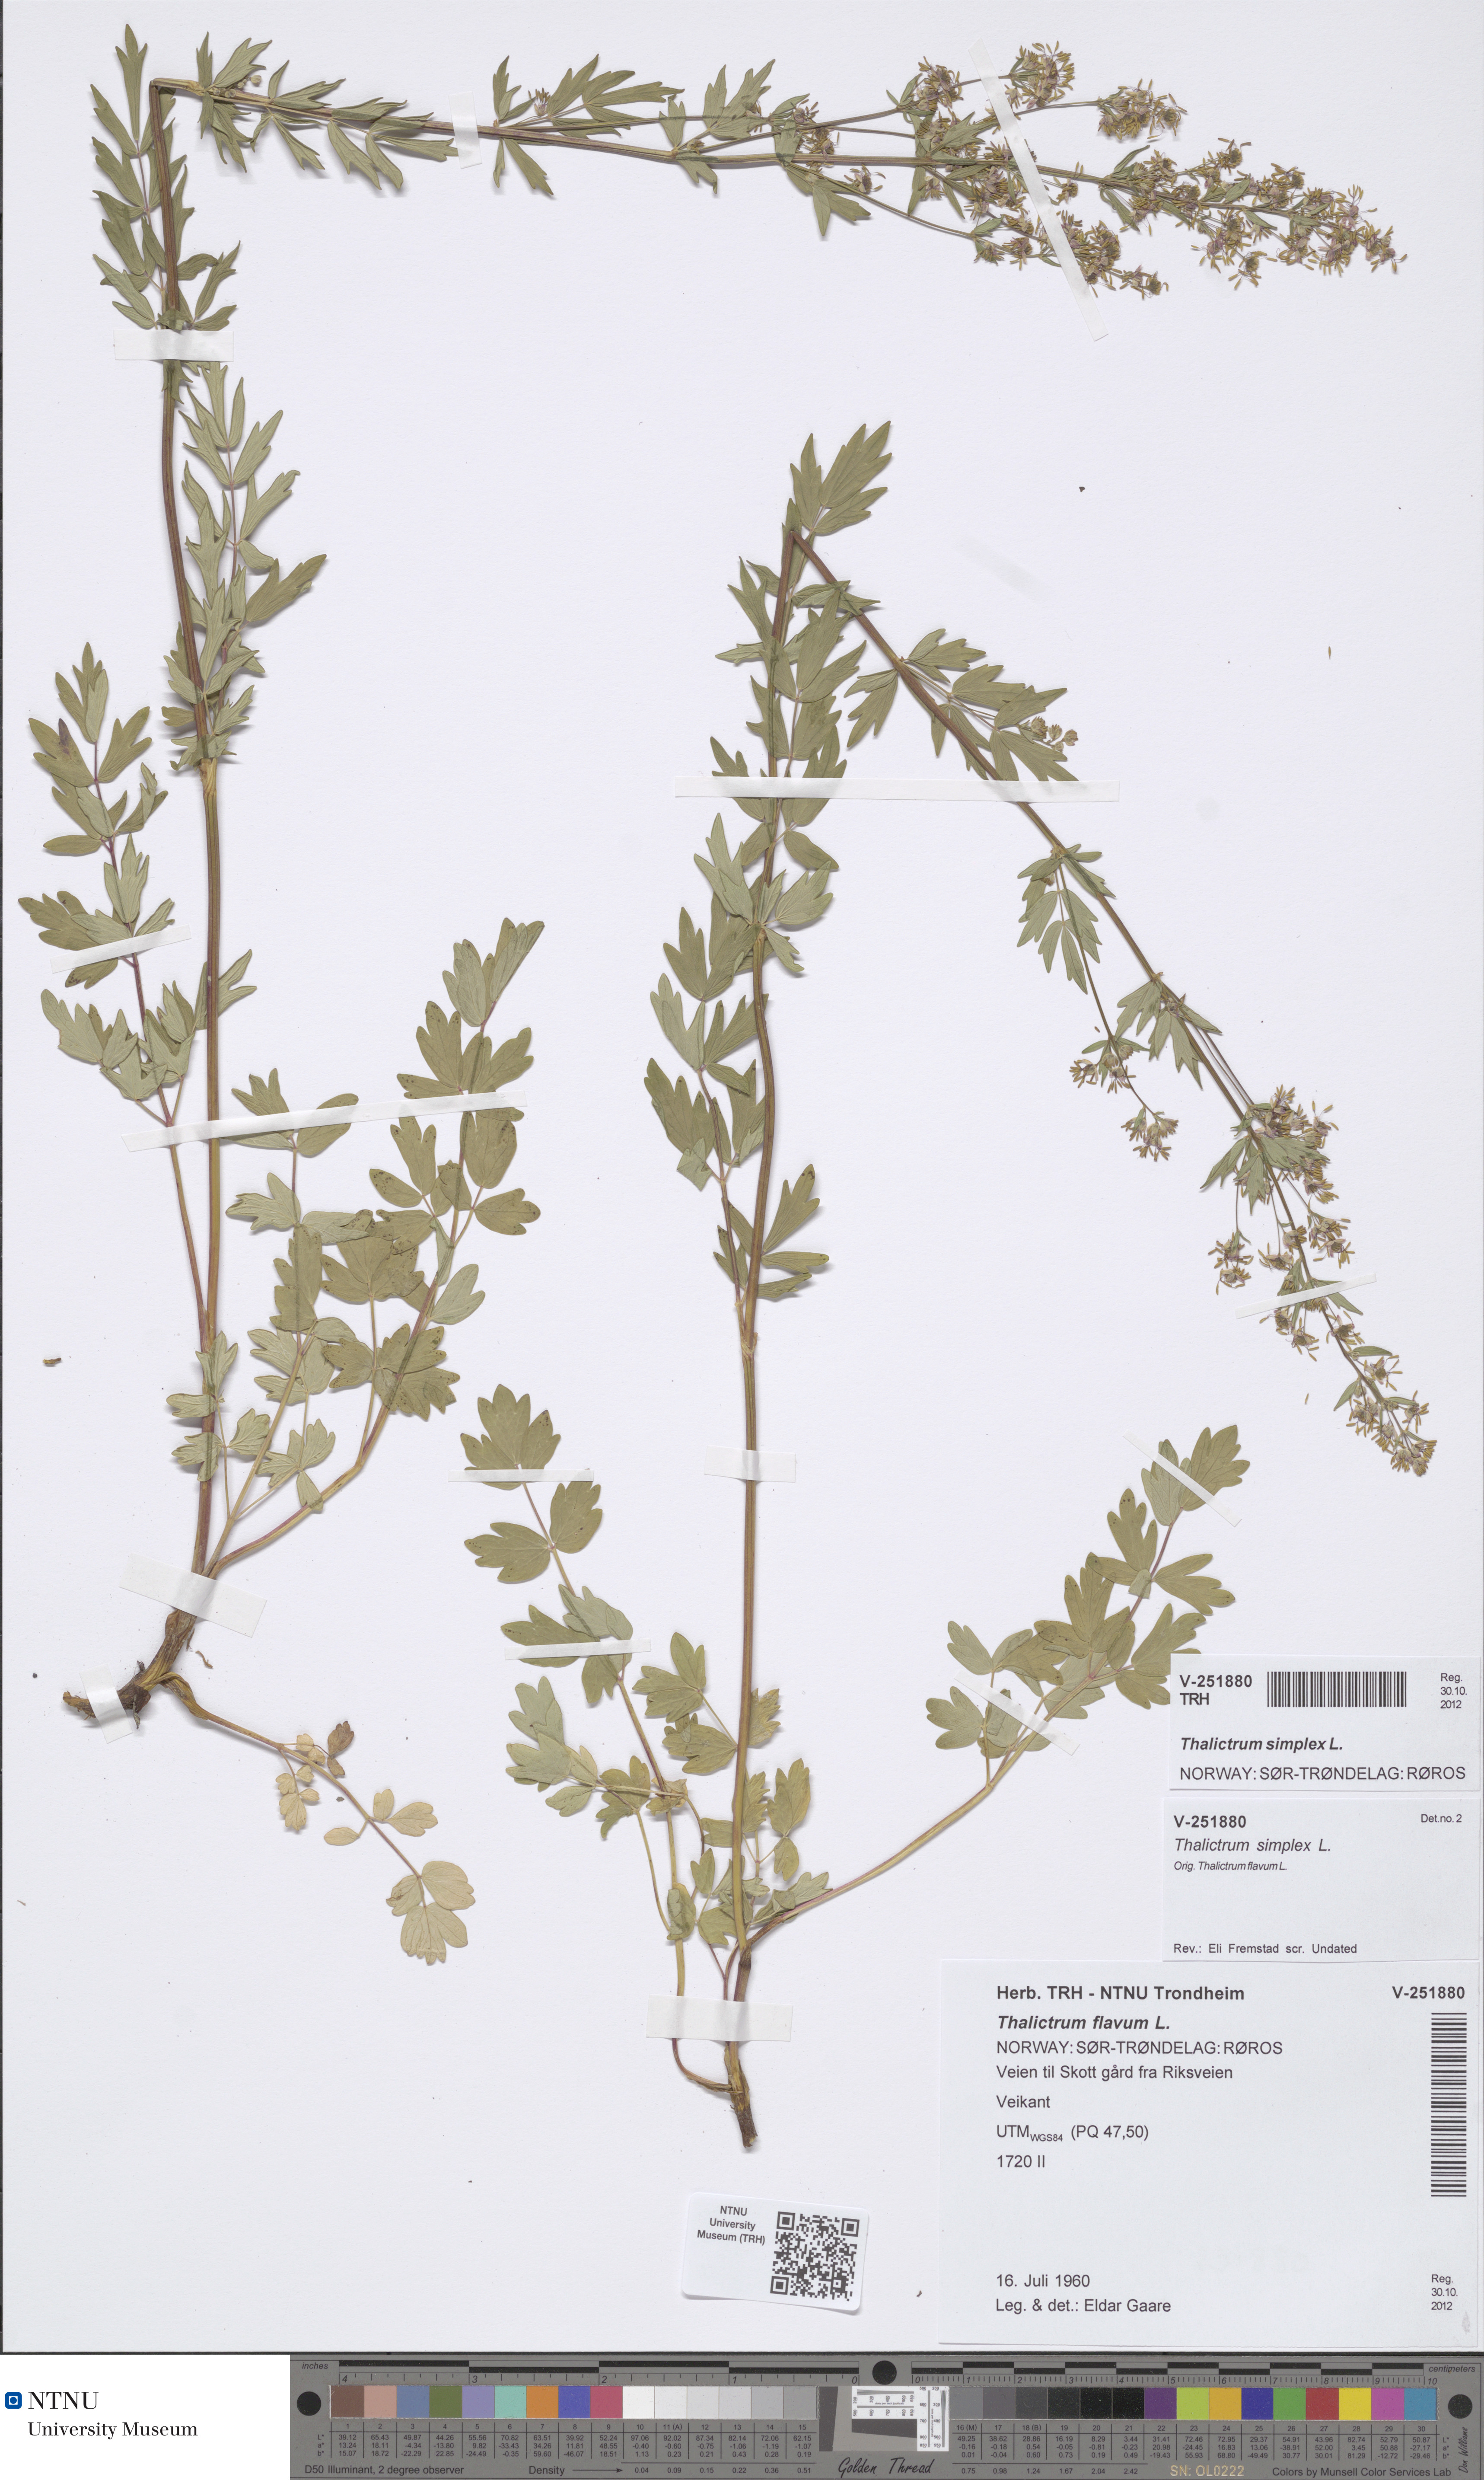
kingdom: Plantae
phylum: Tracheophyta
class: Magnoliopsida
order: Ranunculales
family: Ranunculaceae
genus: Thalictrum
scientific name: Thalictrum simplex
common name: Small meadow-rue
